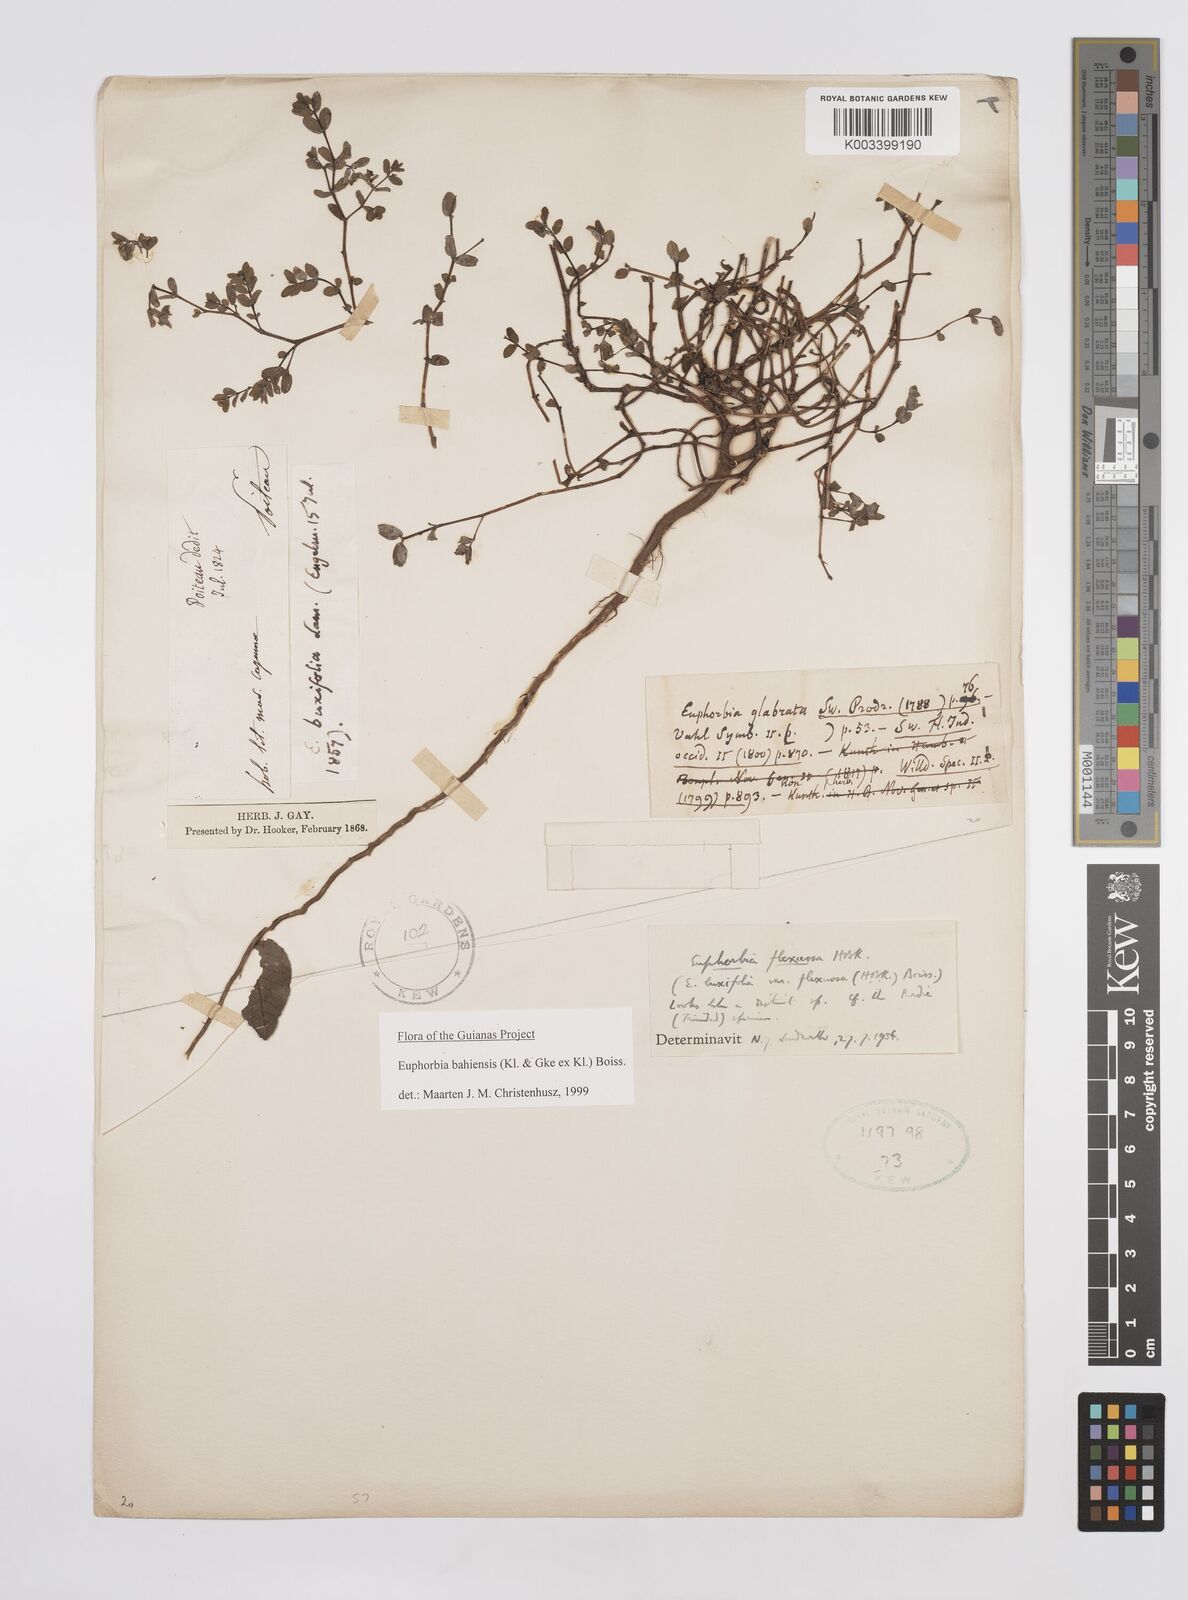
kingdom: Plantae
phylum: Tracheophyta
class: Magnoliopsida
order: Malpighiales
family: Euphorbiaceae
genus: Euphorbia
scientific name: Euphorbia bahiensis
